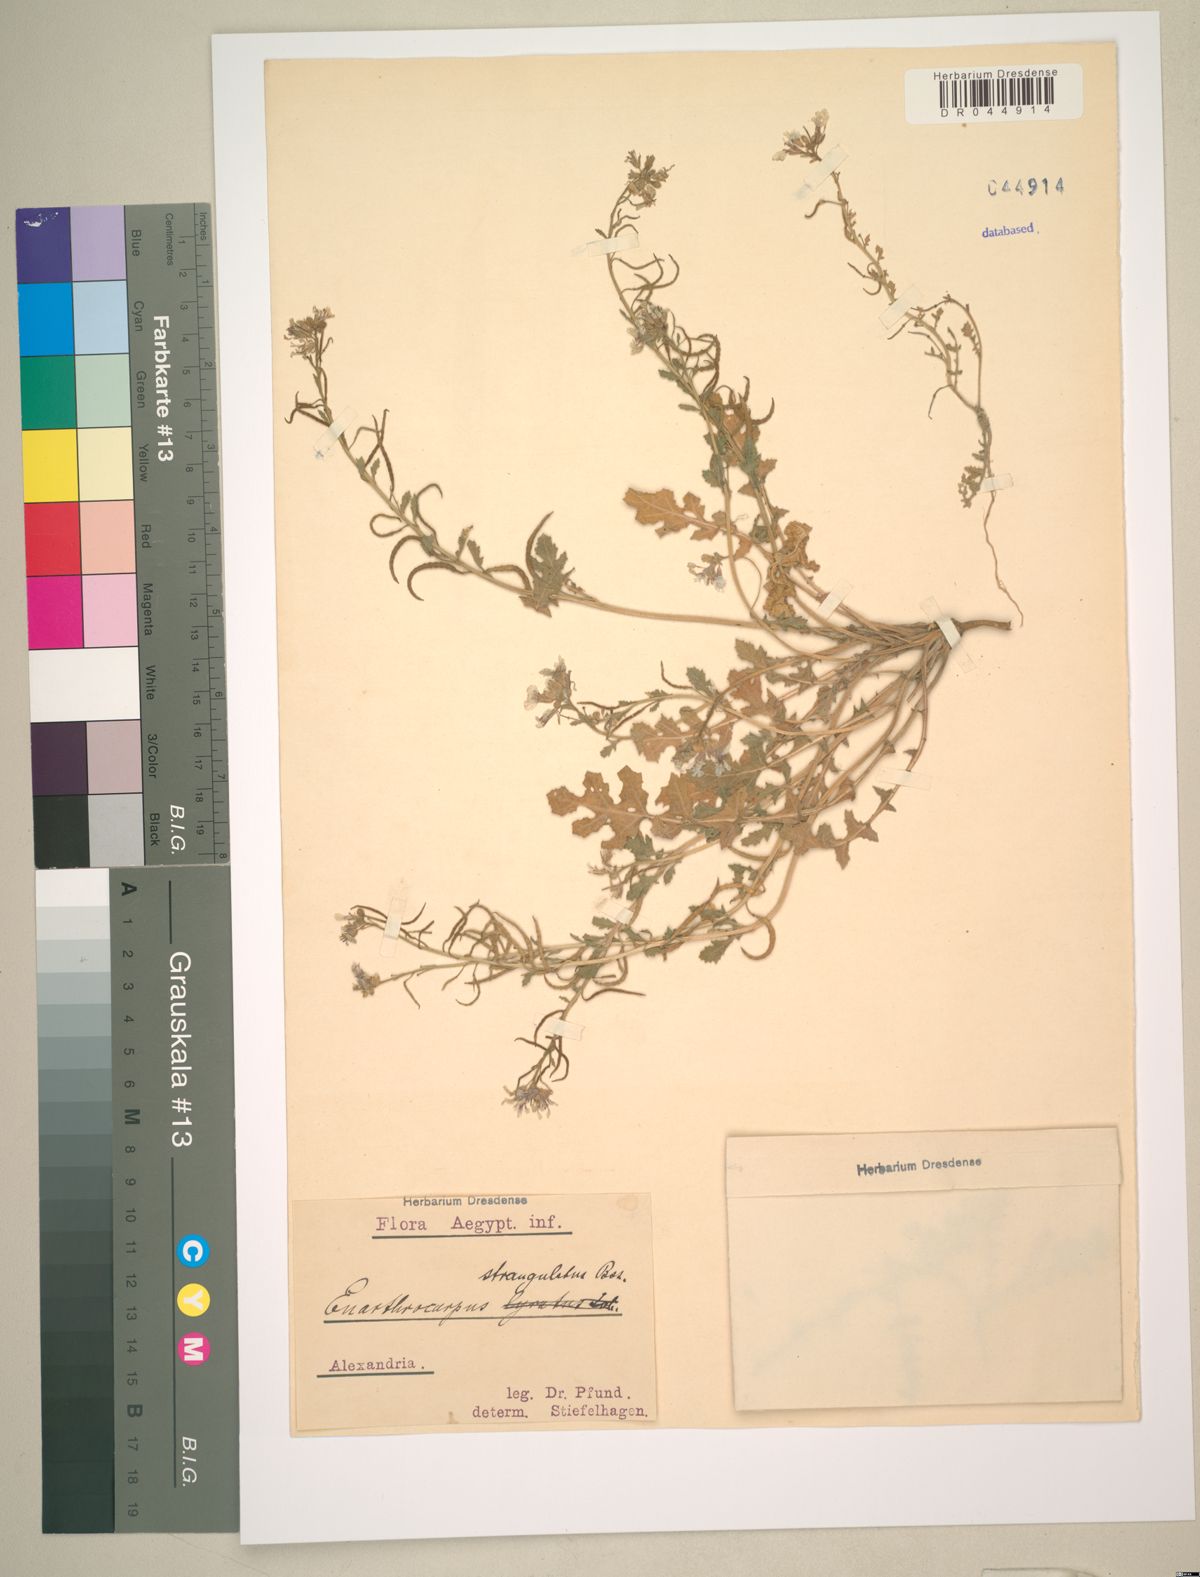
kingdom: Plantae
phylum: Tracheophyta
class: Magnoliopsida
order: Brassicales
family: Brassicaceae
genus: Enarthrocarpus
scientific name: Enarthrocarpus strangulatus
